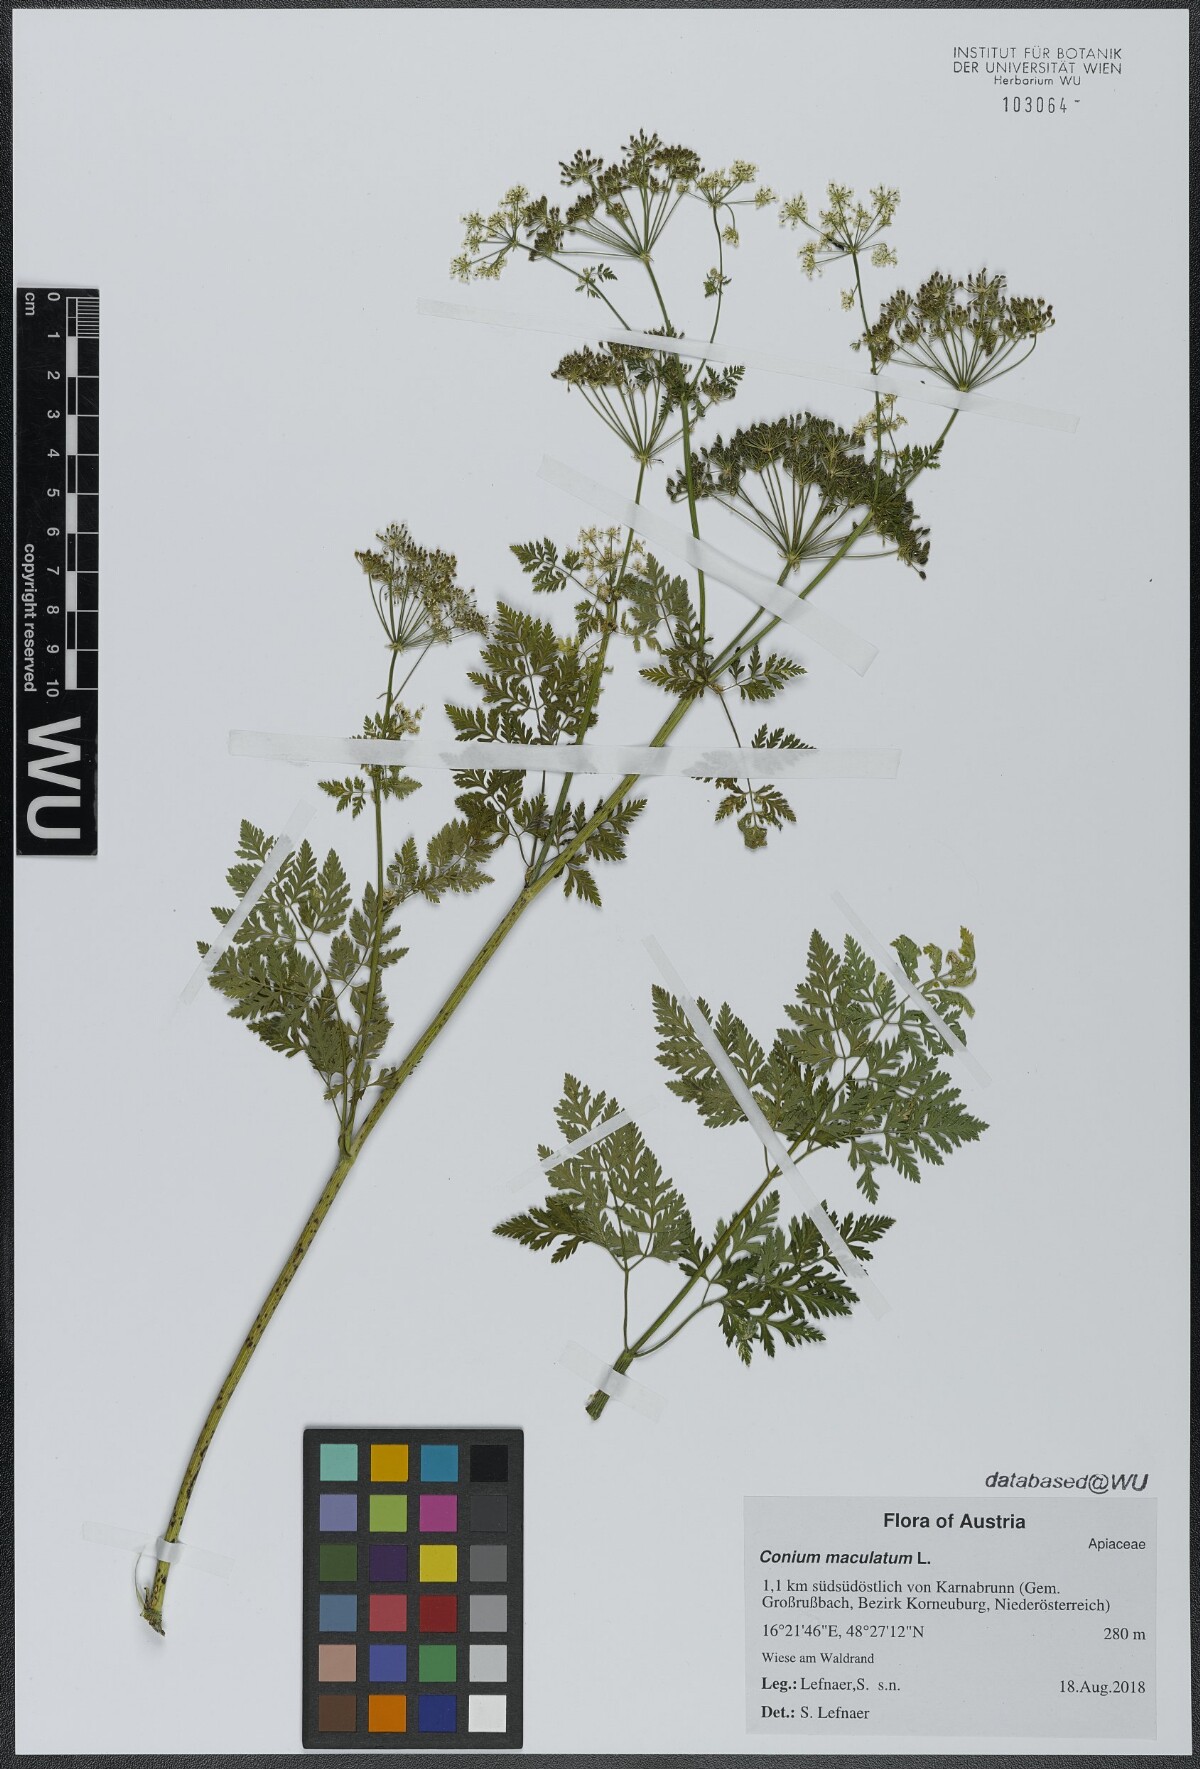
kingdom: Plantae
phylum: Tracheophyta
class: Magnoliopsida
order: Apiales
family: Apiaceae
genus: Conium
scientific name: Conium maculatum
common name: Hemlock
